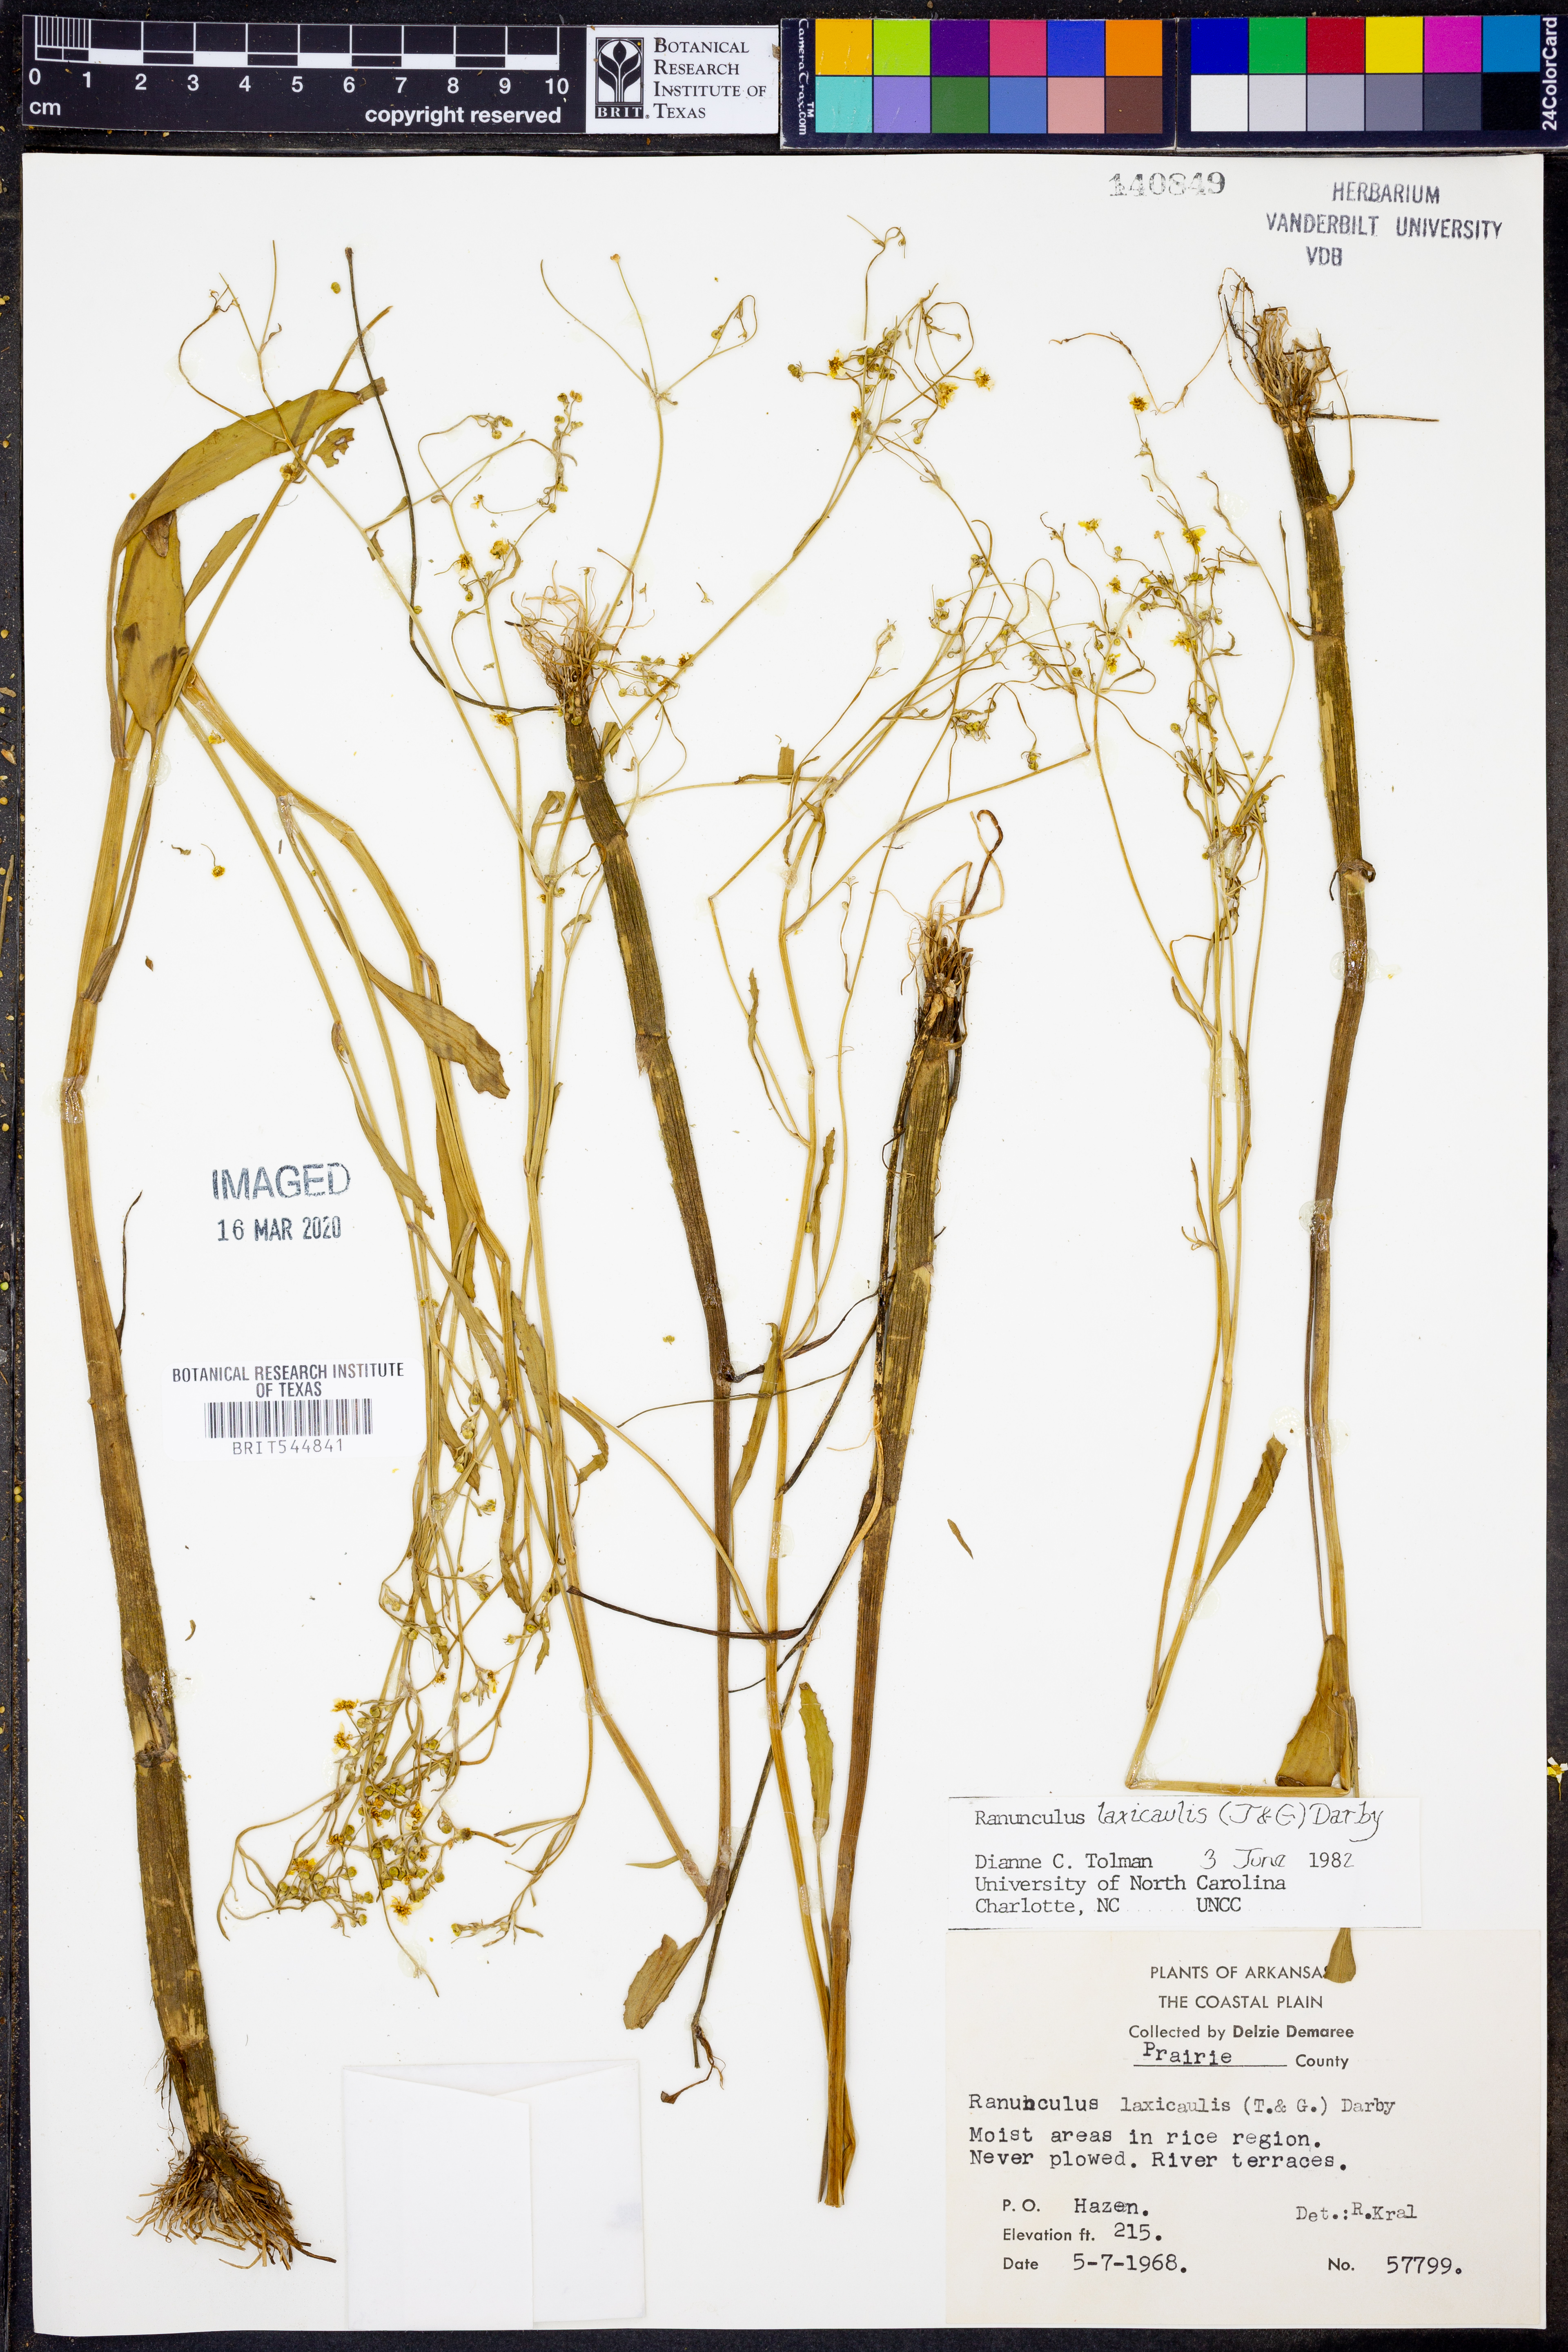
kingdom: Plantae
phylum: Tracheophyta
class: Magnoliopsida
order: Ranunculales
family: Ranunculaceae
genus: Ranunculus
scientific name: Ranunculus laxicaulis
